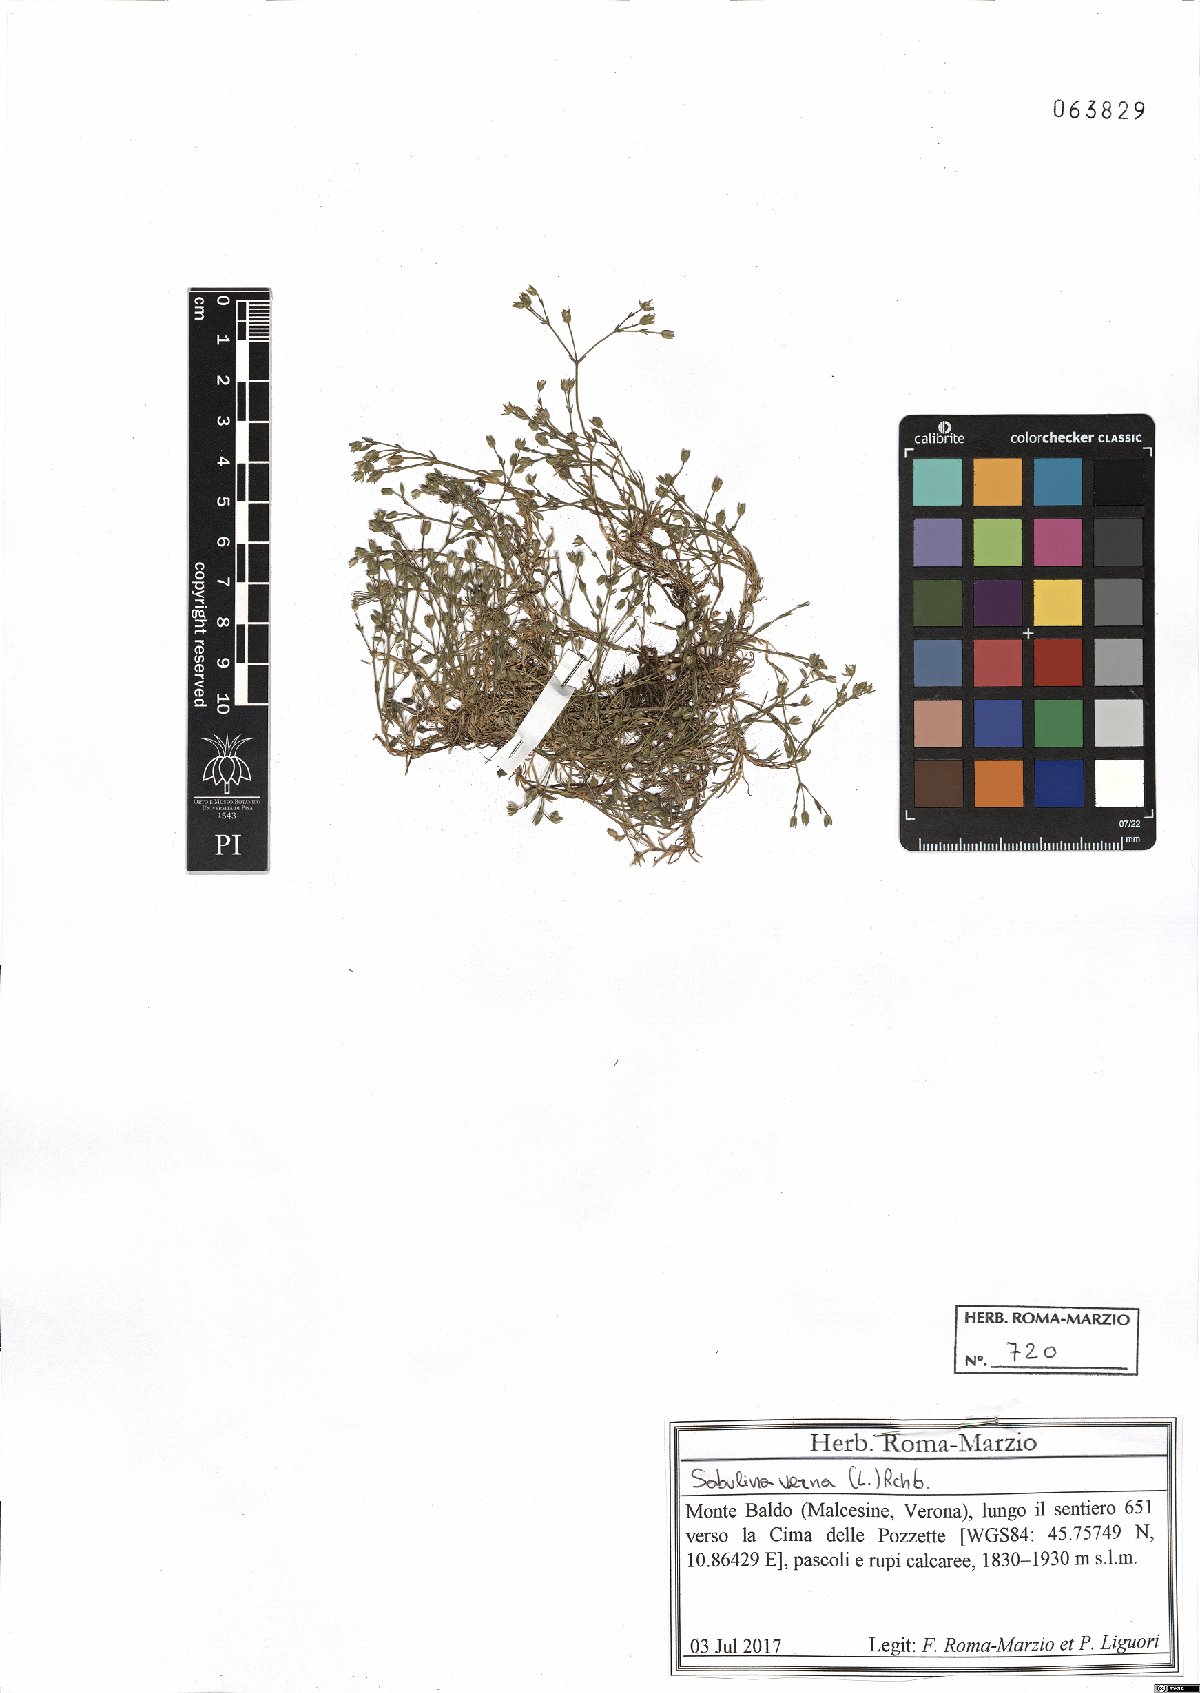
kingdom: Plantae
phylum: Tracheophyta
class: Magnoliopsida
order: Caryophyllales
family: Caryophyllaceae
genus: Sabulina
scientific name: Sabulina verna
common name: Spring sandwort
